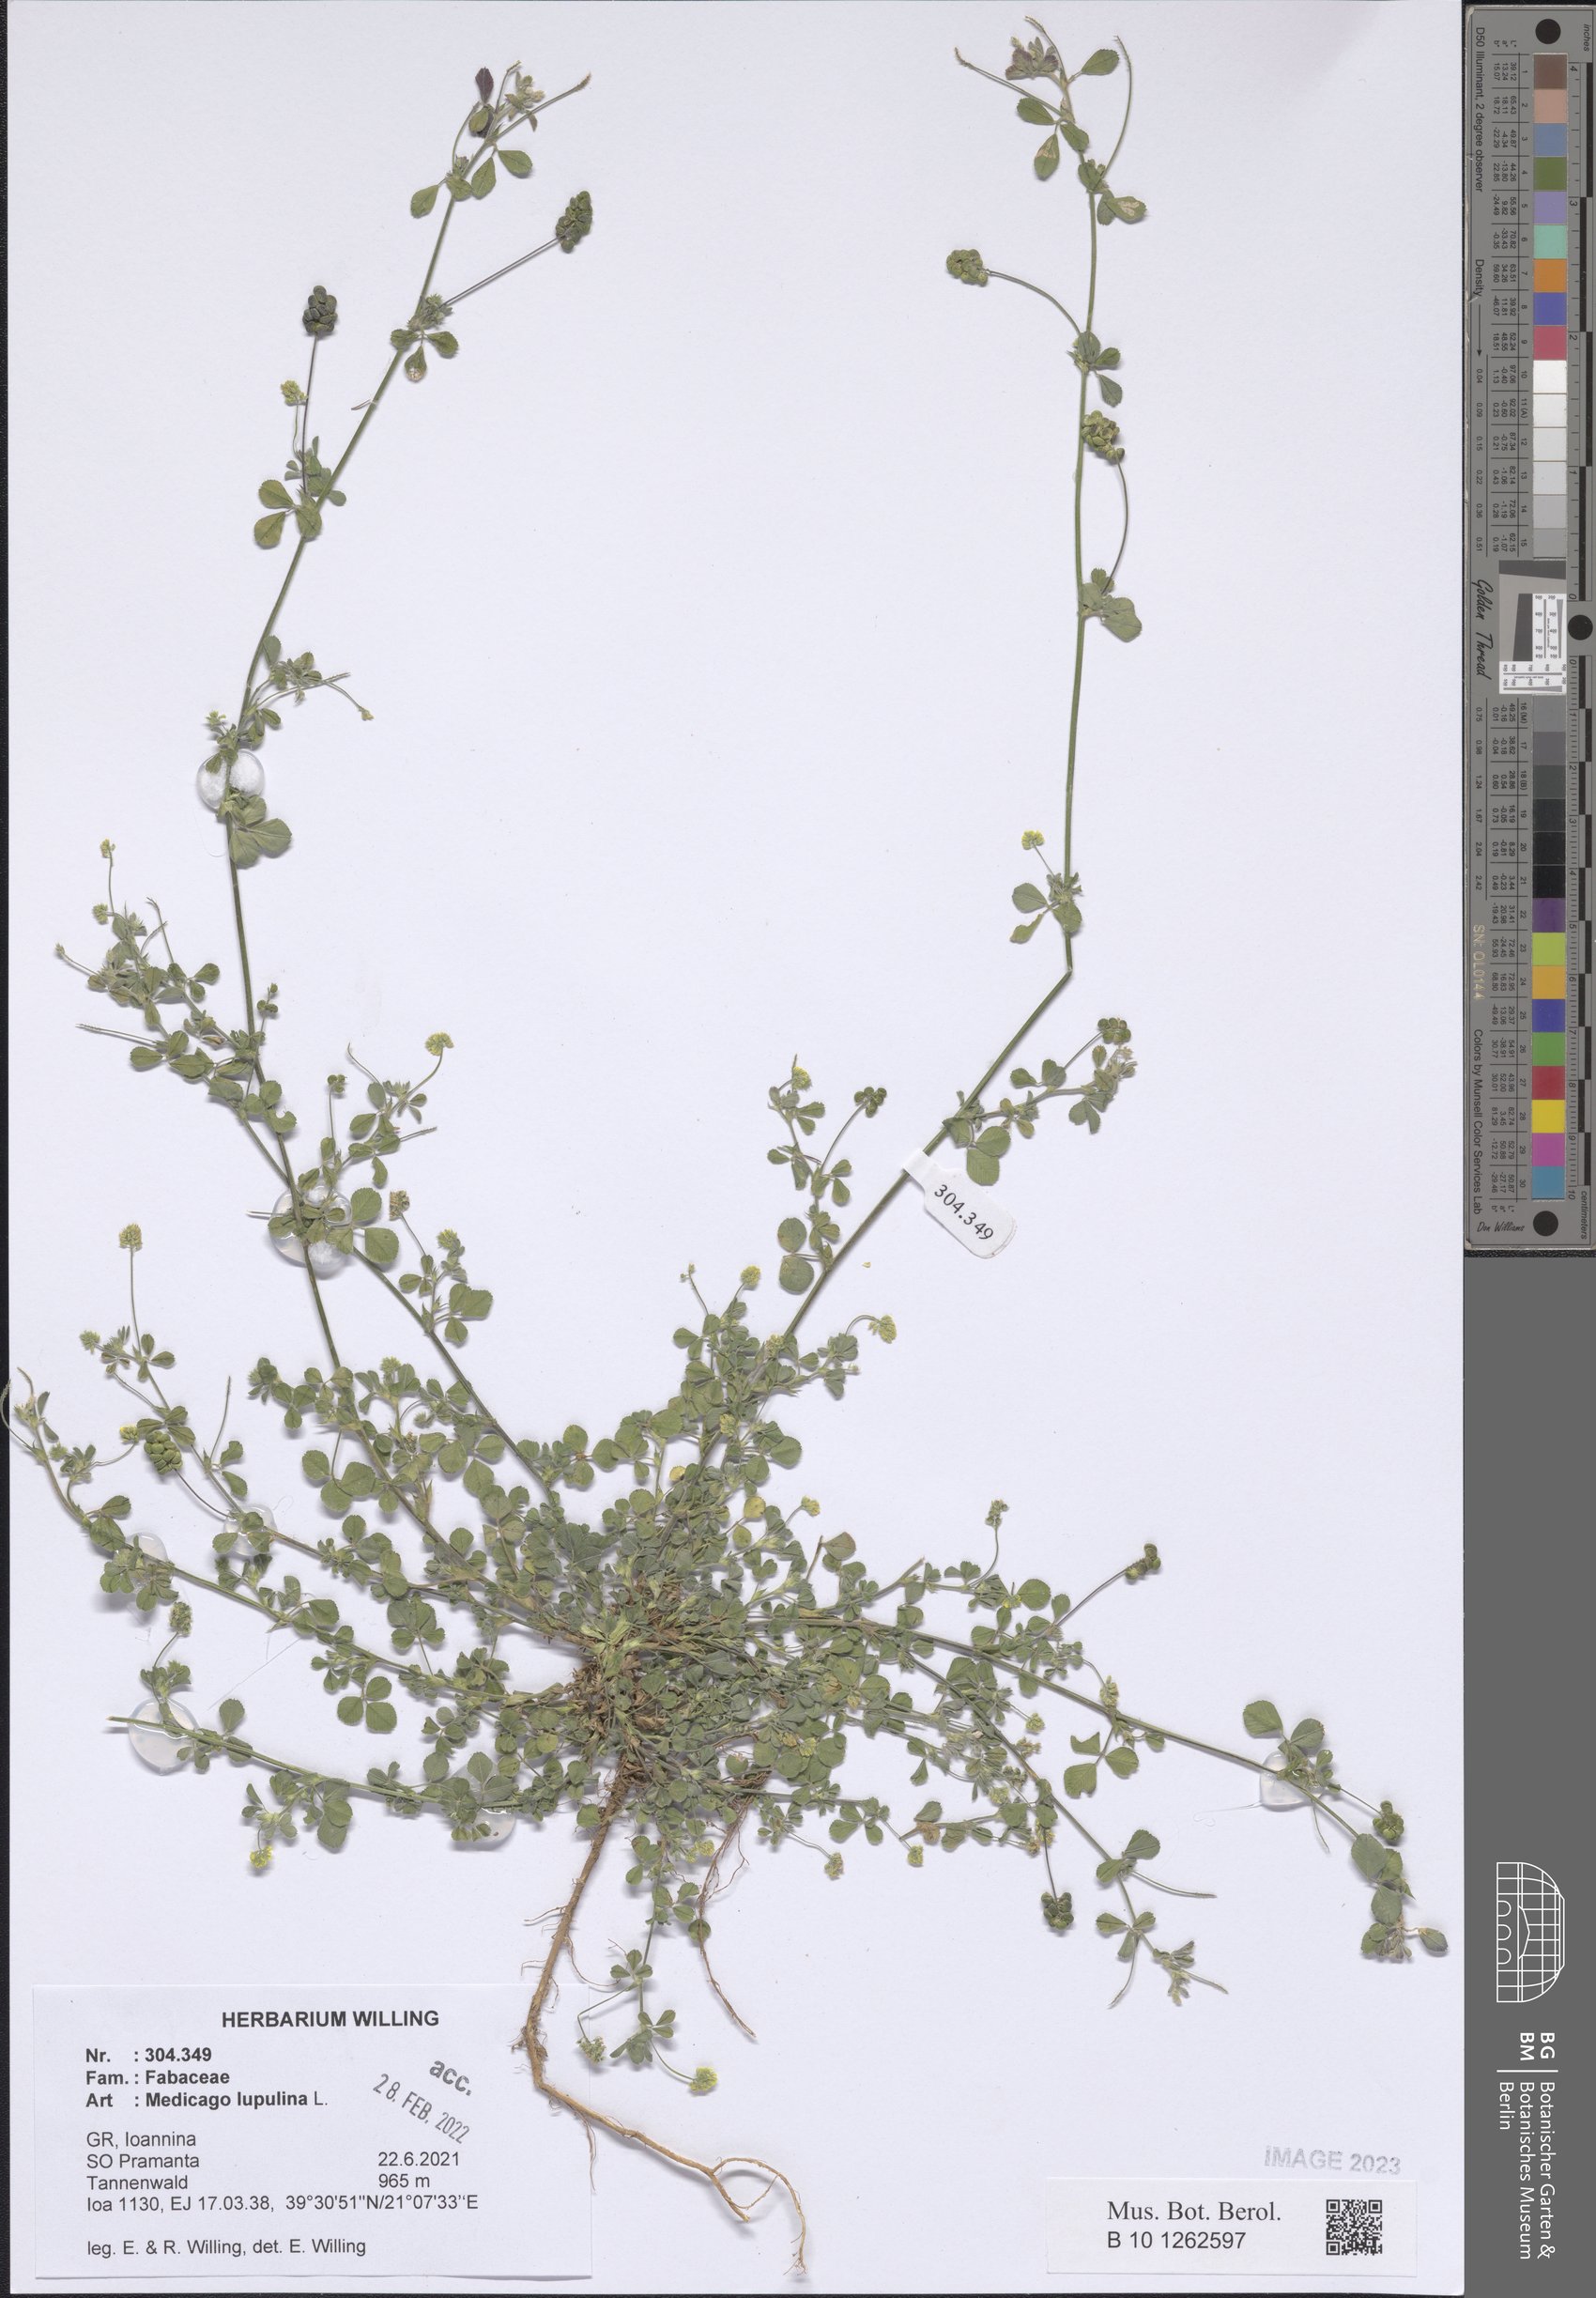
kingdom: Plantae
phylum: Tracheophyta
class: Magnoliopsida
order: Fabales
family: Fabaceae
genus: Medicago
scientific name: Medicago lupulina
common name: Black medick
